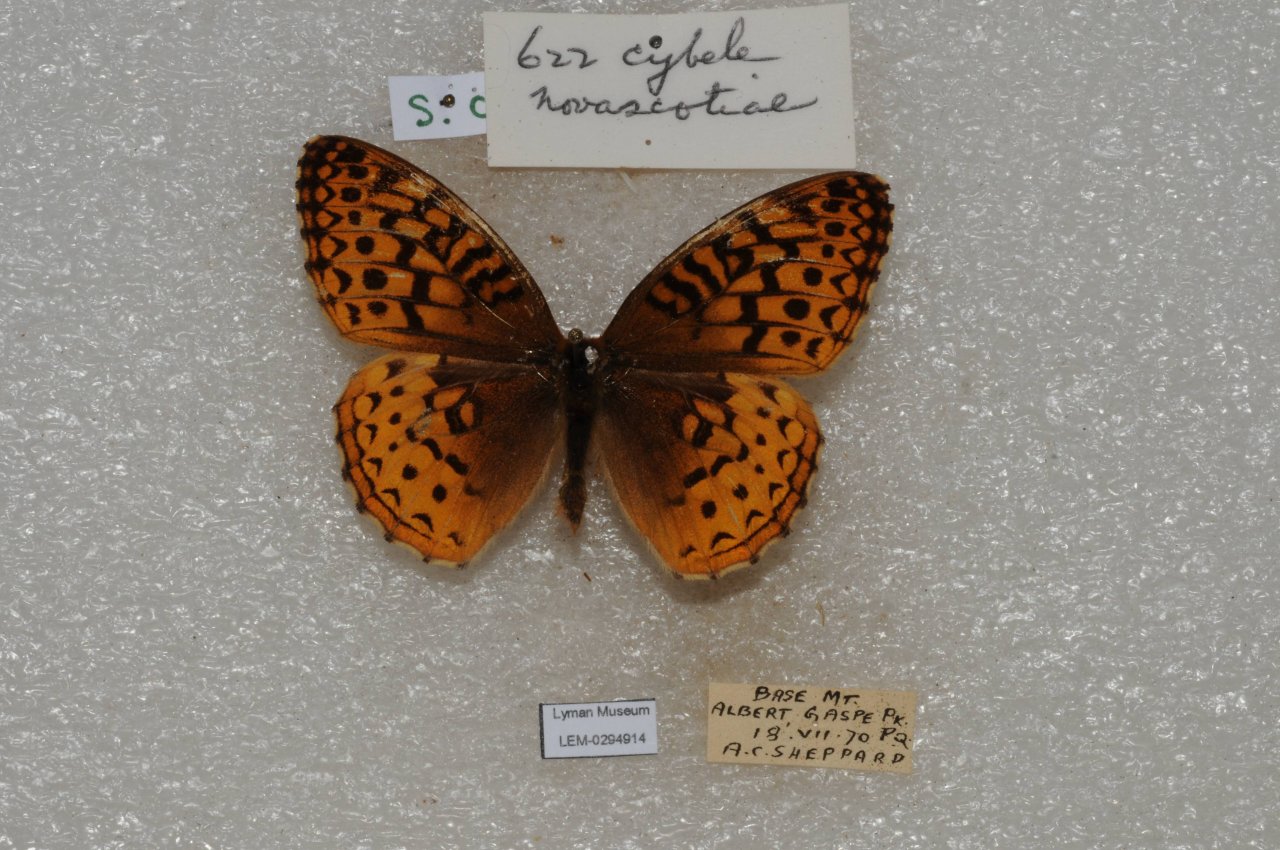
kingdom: Animalia
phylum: Arthropoda
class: Insecta
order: Lepidoptera
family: Nymphalidae
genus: Speyeria
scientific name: Speyeria cybele
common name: Great Spangled Fritillary
